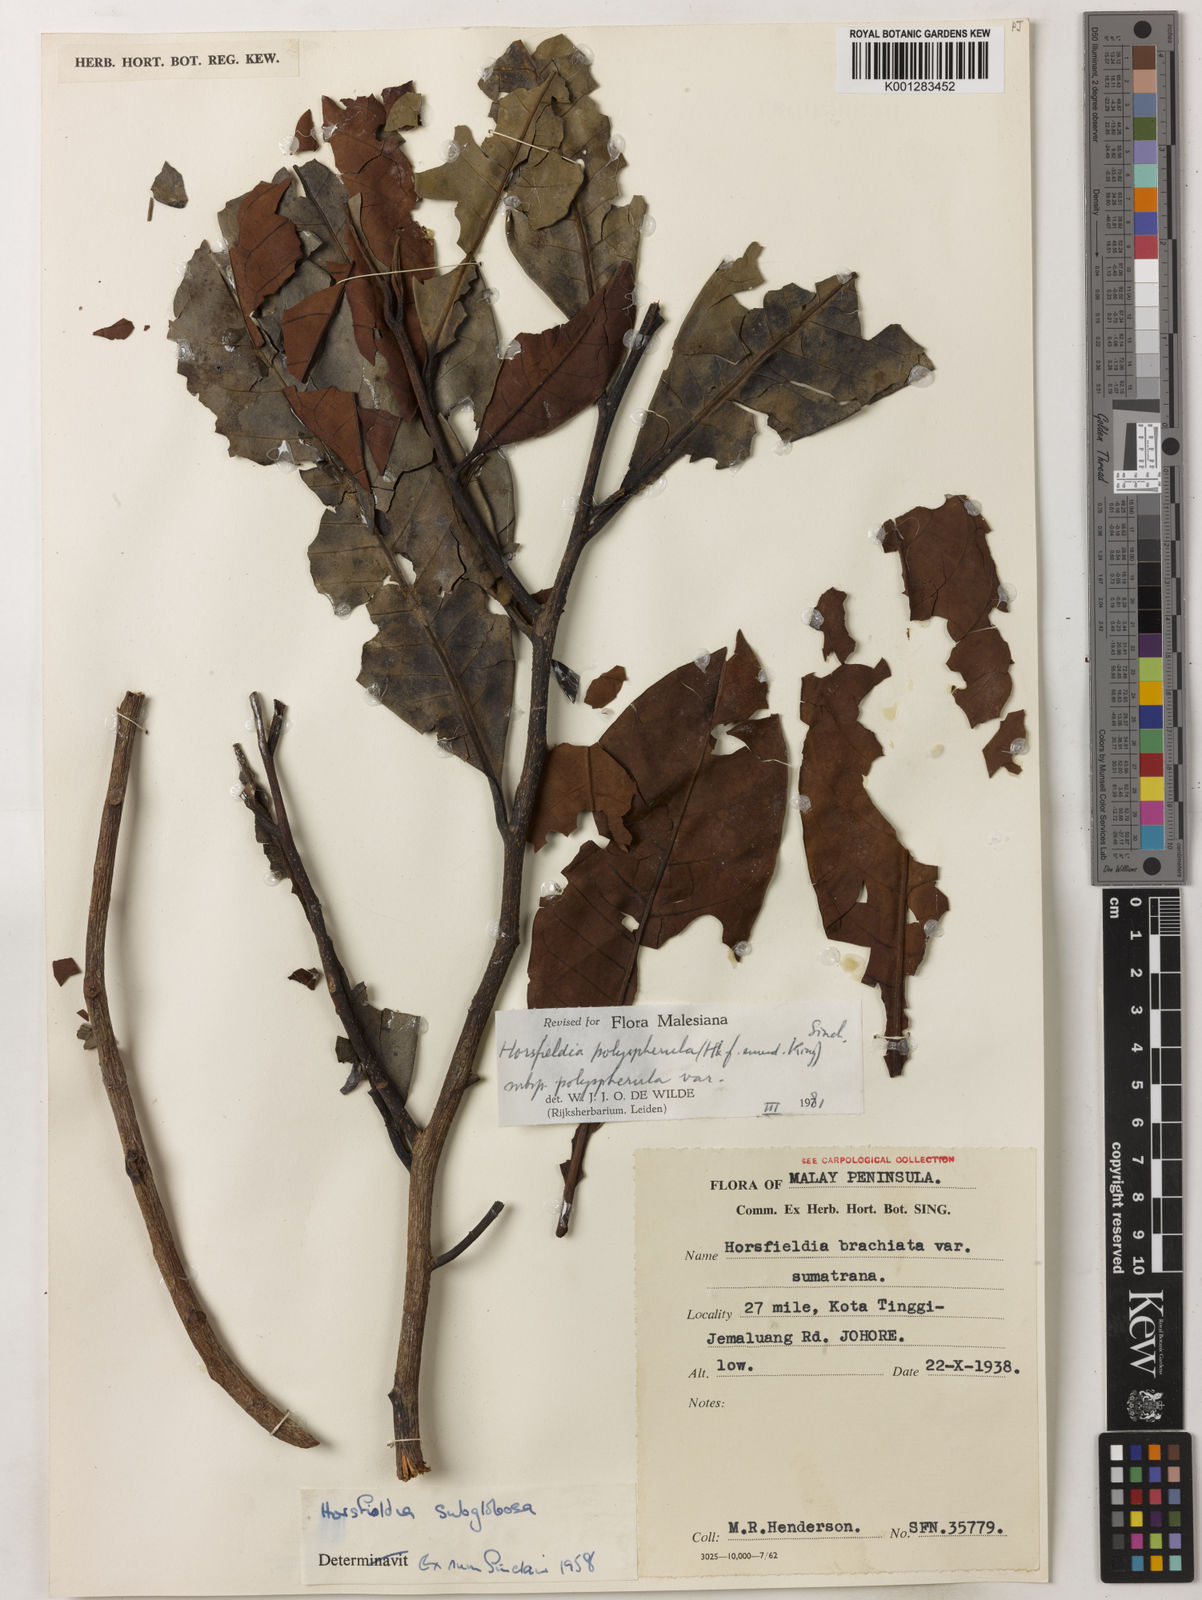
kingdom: Plantae
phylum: Tracheophyta
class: Magnoliopsida
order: Magnoliales
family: Myristicaceae
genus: Horsfieldia
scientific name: Horsfieldia polyspherula
